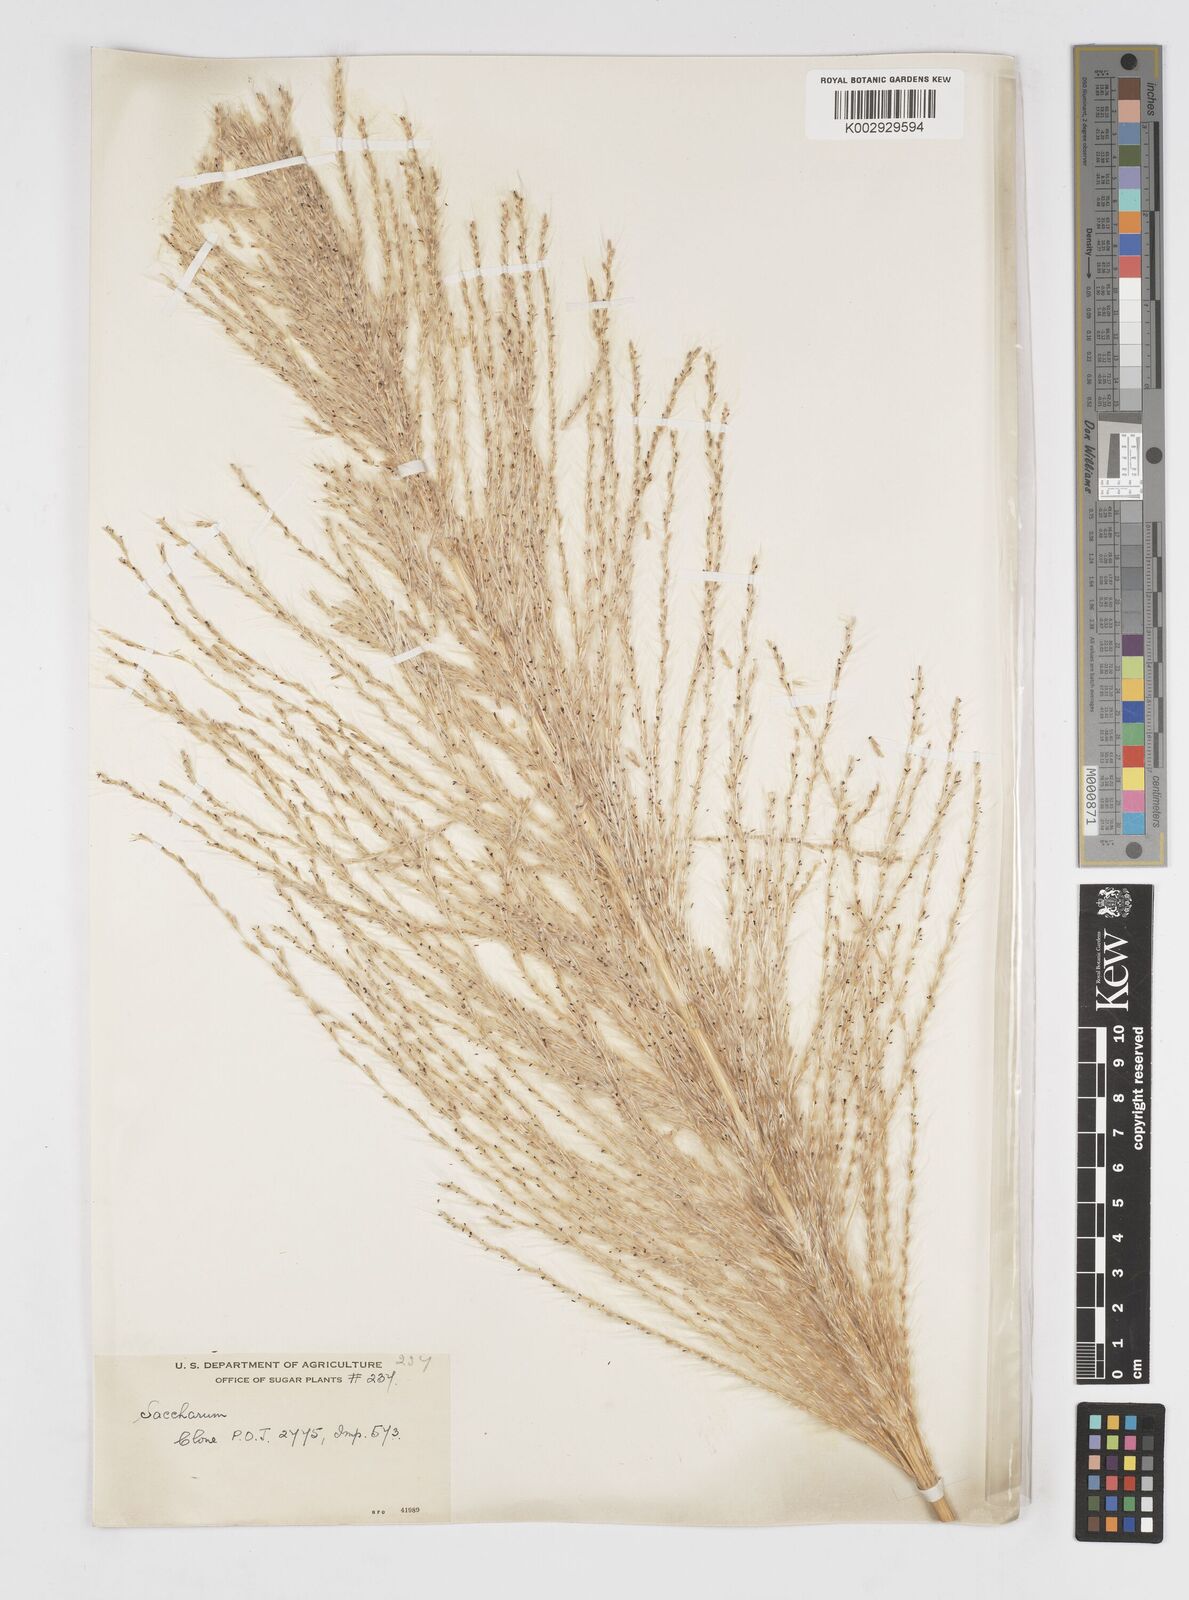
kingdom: Plantae
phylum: Tracheophyta
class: Liliopsida
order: Poales
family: Poaceae
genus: Saccharum
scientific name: Saccharum officinarum
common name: Sugarcane
